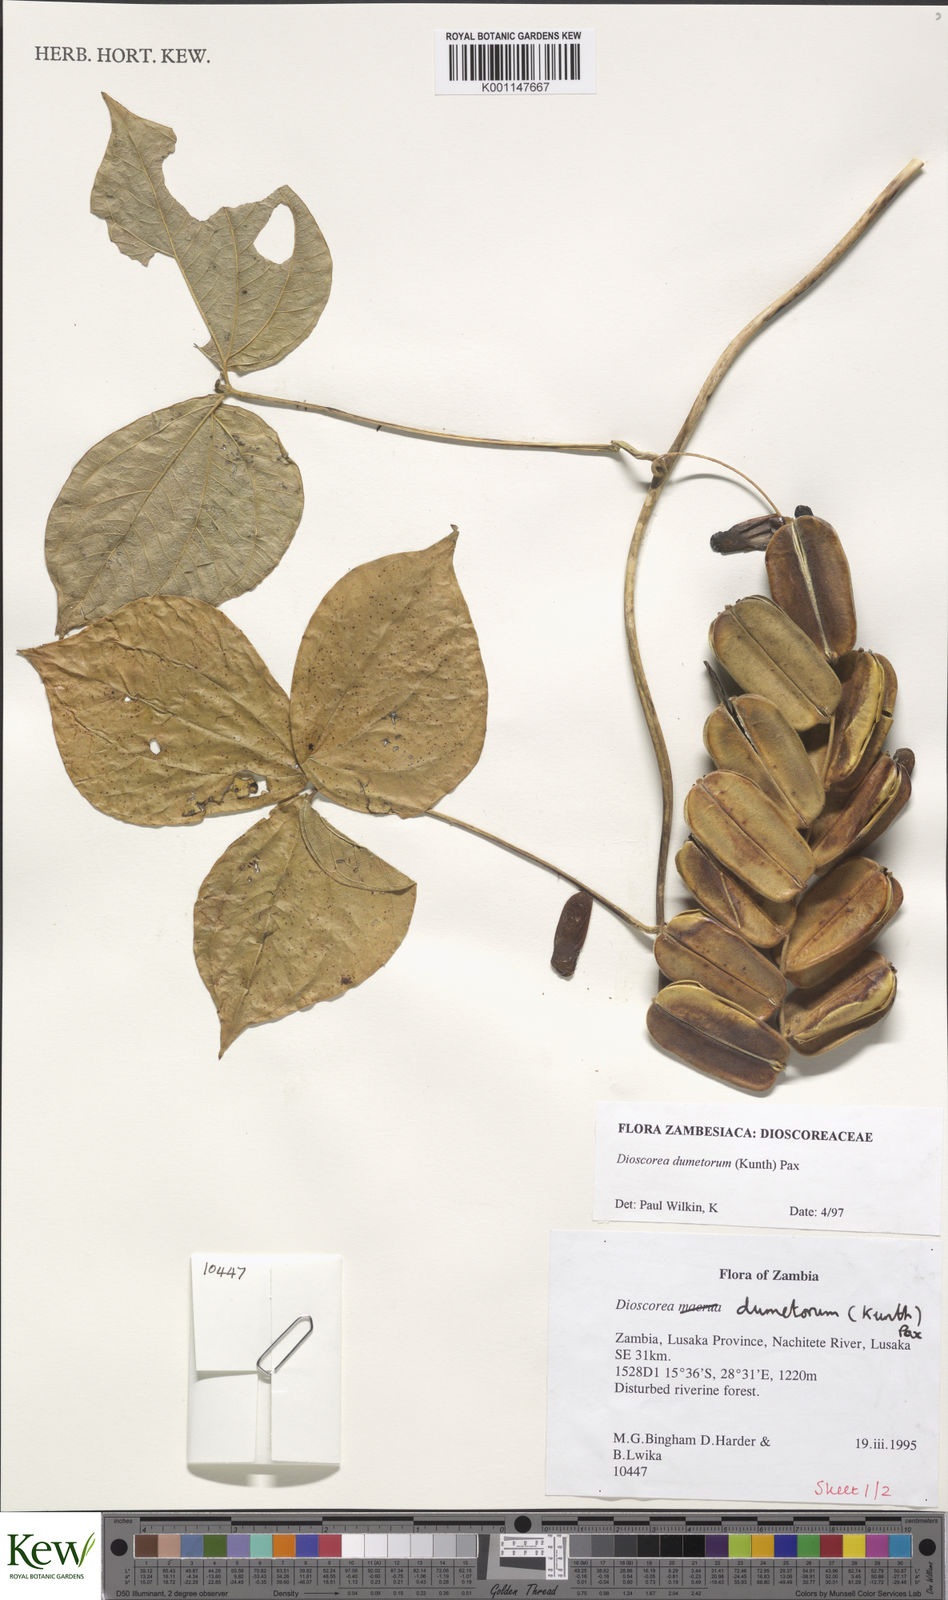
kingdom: Plantae
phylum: Tracheophyta
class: Liliopsida
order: Dioscoreales
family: Dioscoreaceae
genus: Dioscorea
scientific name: Dioscorea dumetorum
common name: African bitter yam
